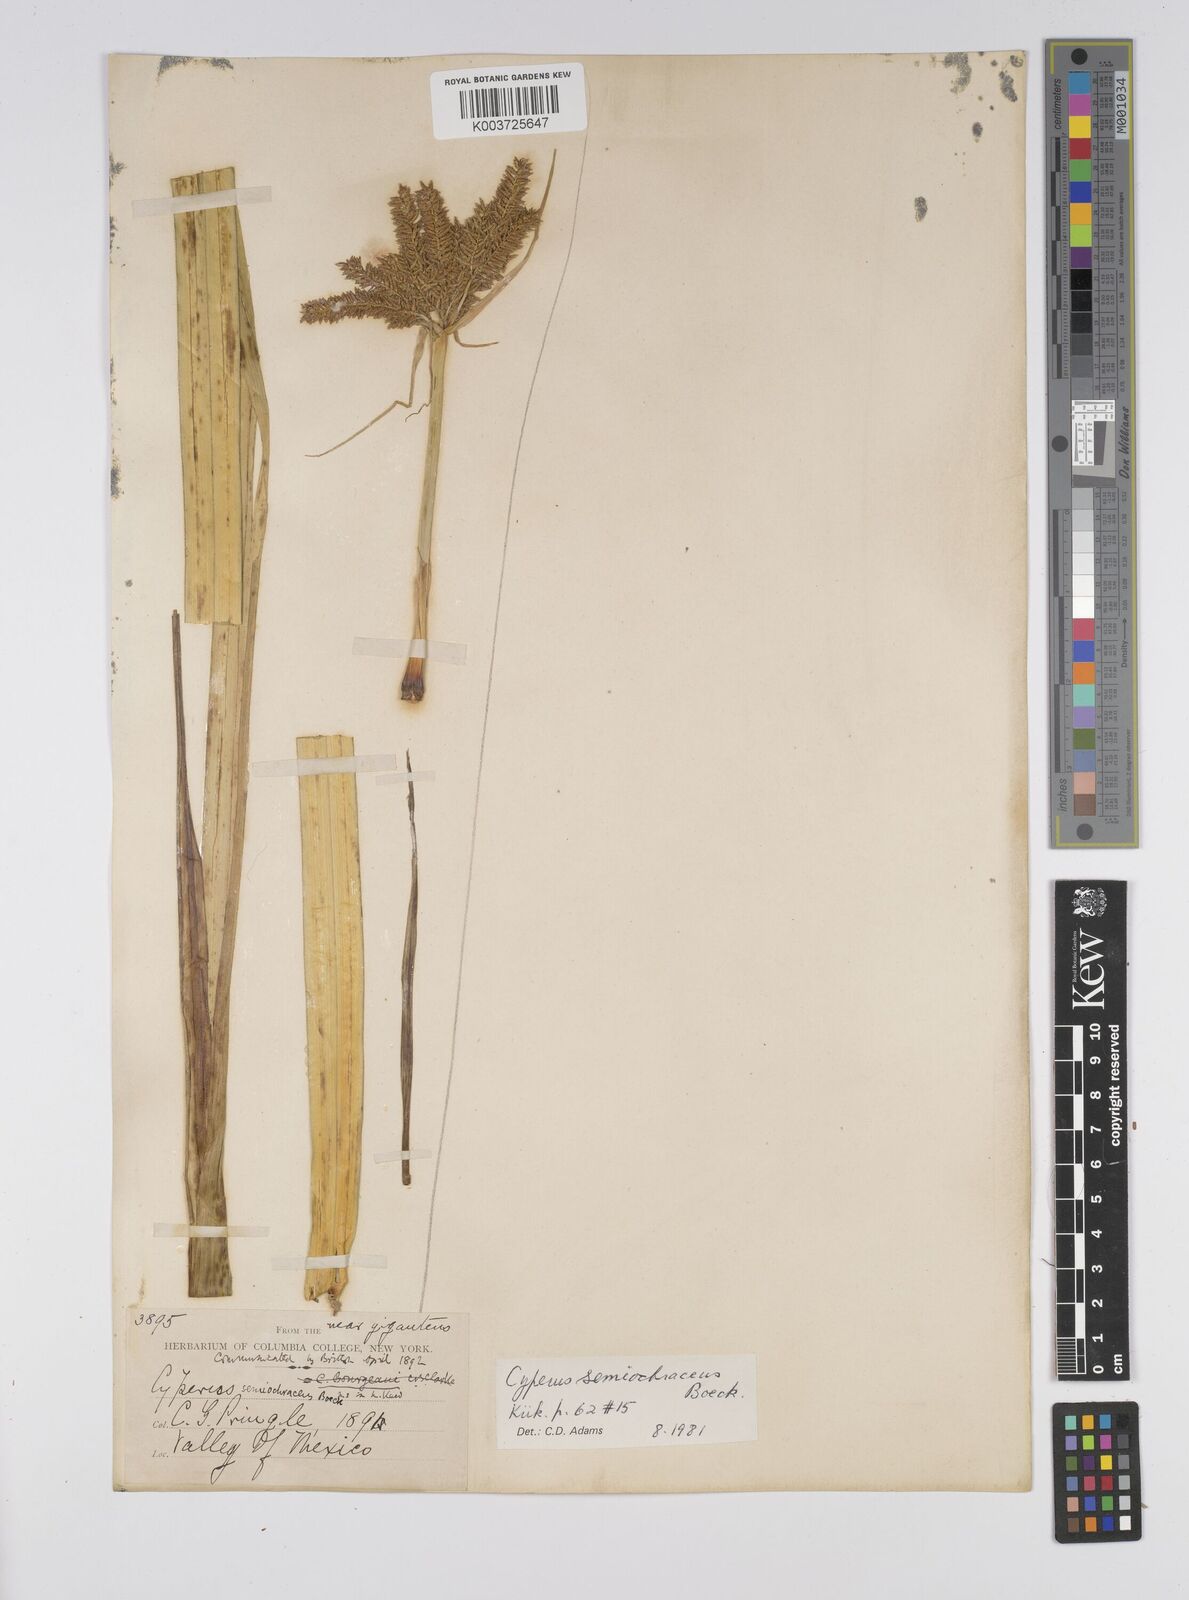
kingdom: Plantae
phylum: Tracheophyta
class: Liliopsida
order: Poales
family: Cyperaceae
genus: Cyperus
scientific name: Cyperus semiochraceus
